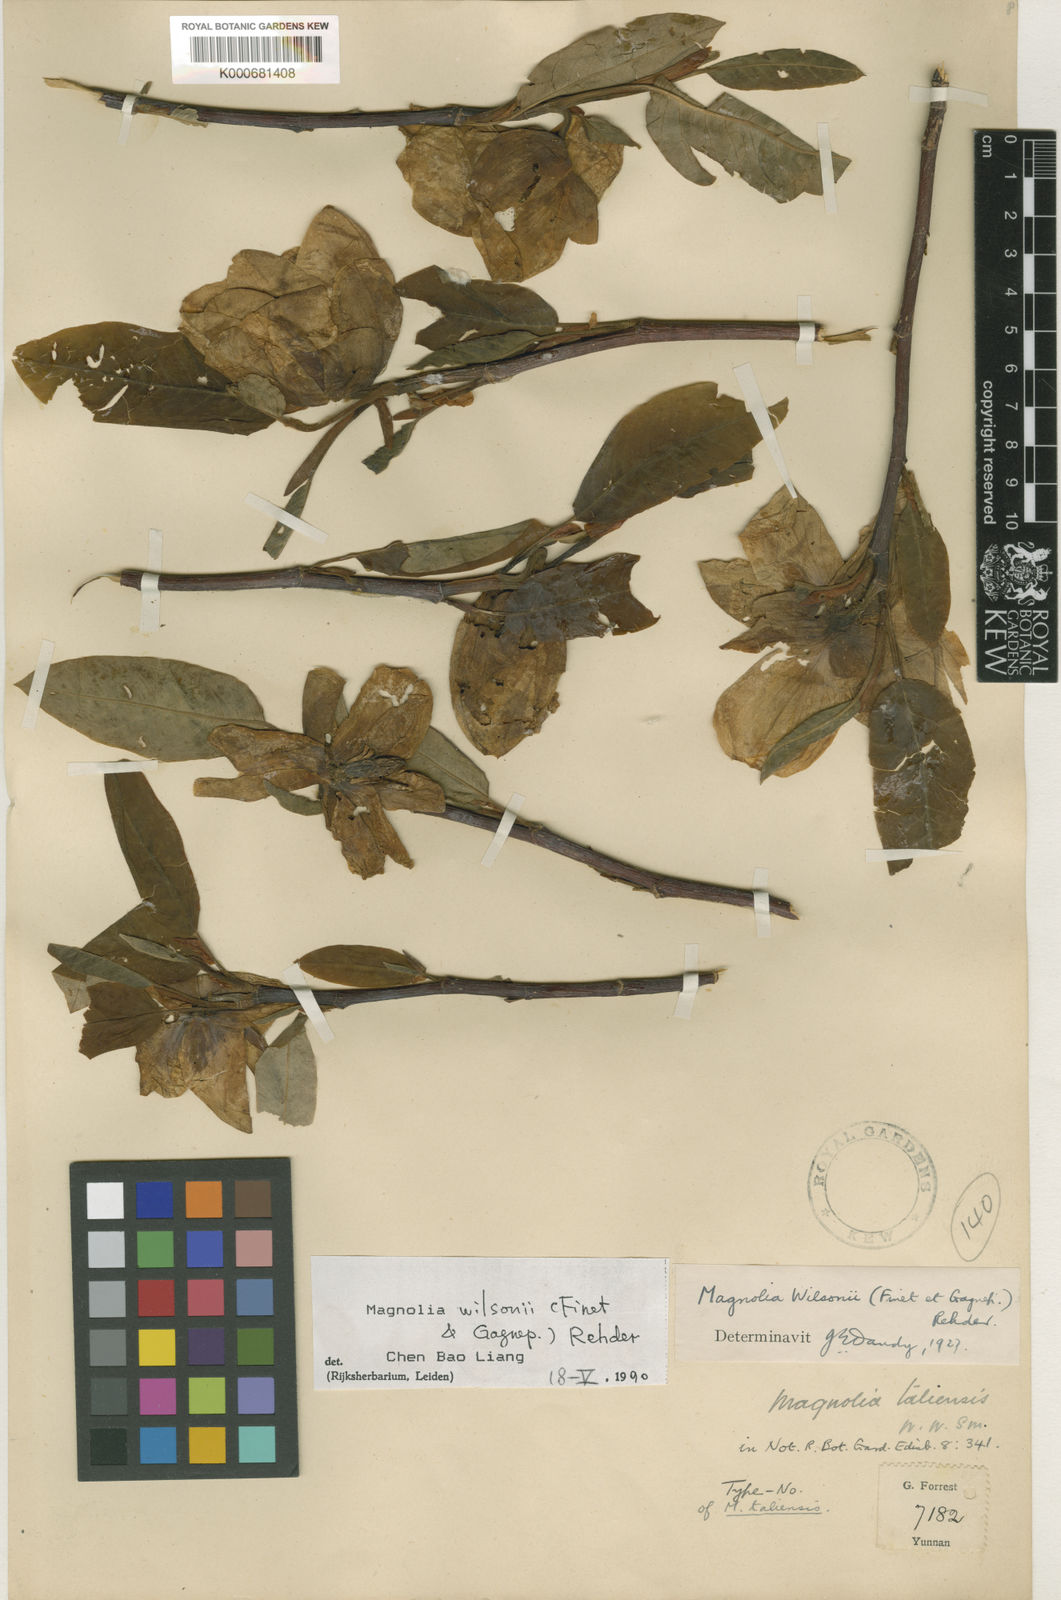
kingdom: Plantae
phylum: Tracheophyta
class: Magnoliopsida
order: Magnoliales
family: Magnoliaceae
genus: Magnolia
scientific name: Magnolia wilsonii
